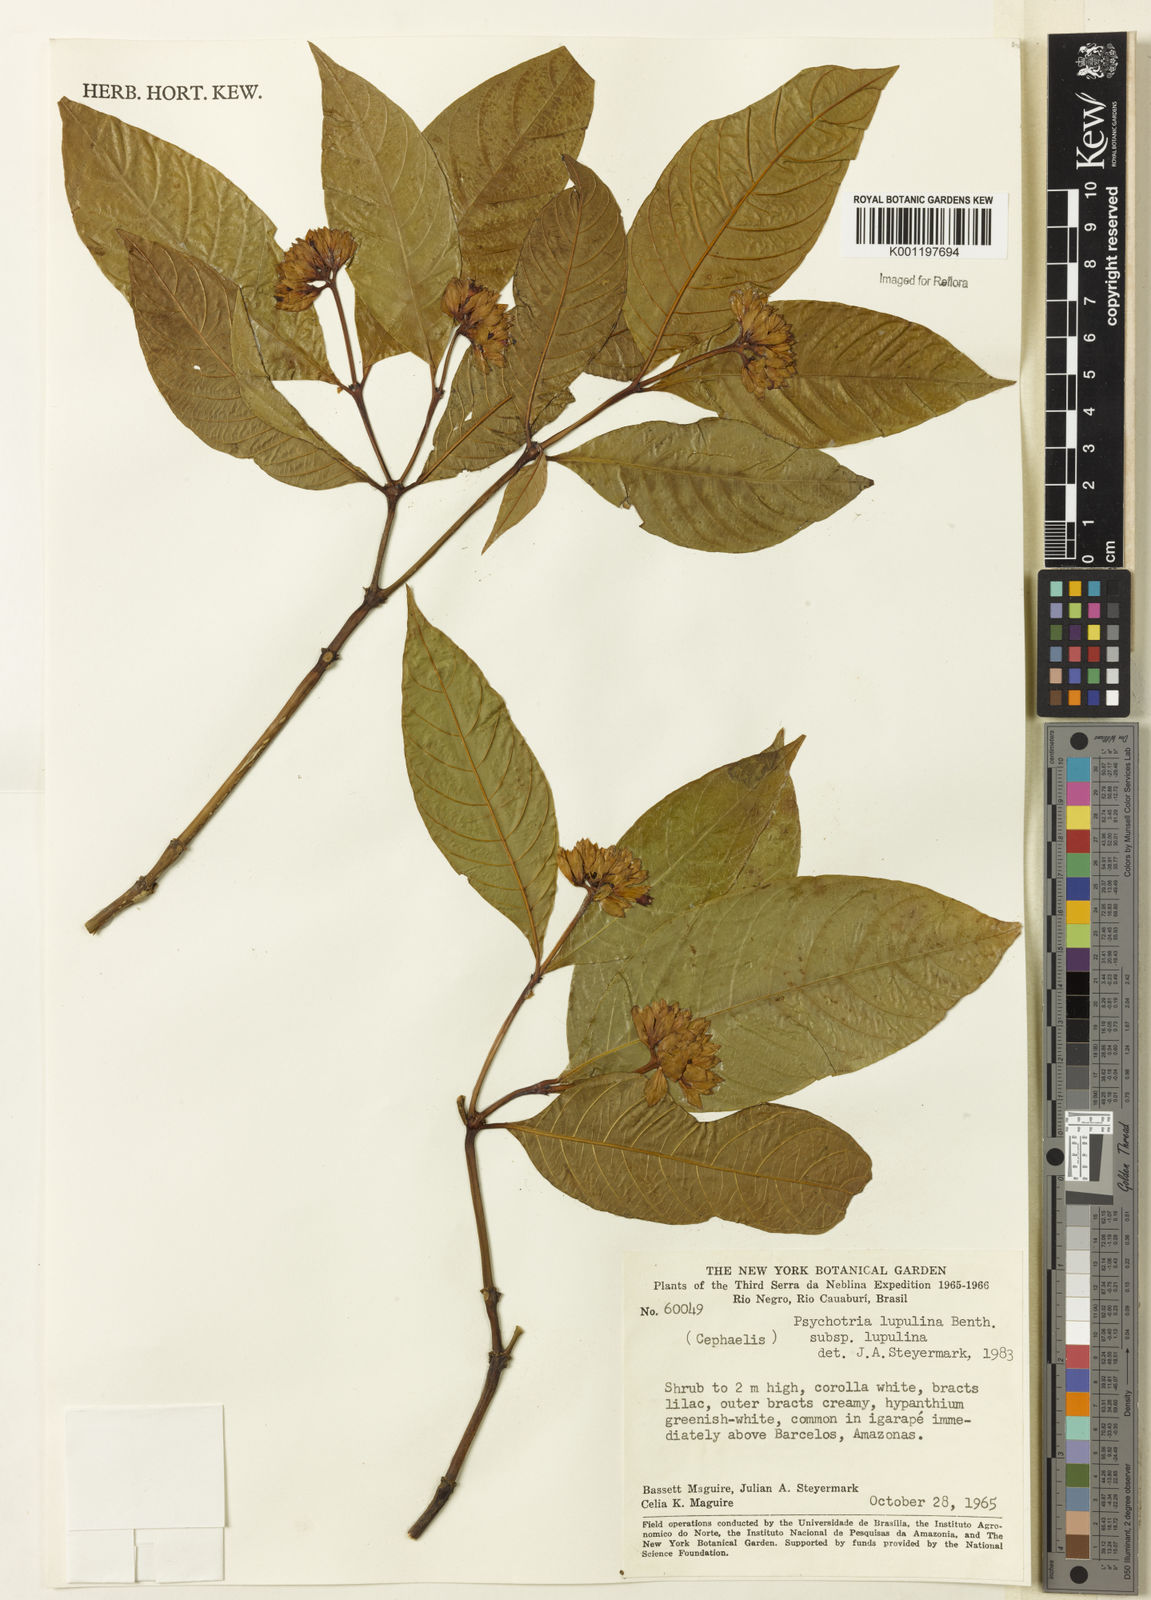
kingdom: Plantae
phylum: Tracheophyta
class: Magnoliopsida
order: Gentianales
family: Rubiaceae
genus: Palicourea
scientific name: Palicourea justiciifolia
